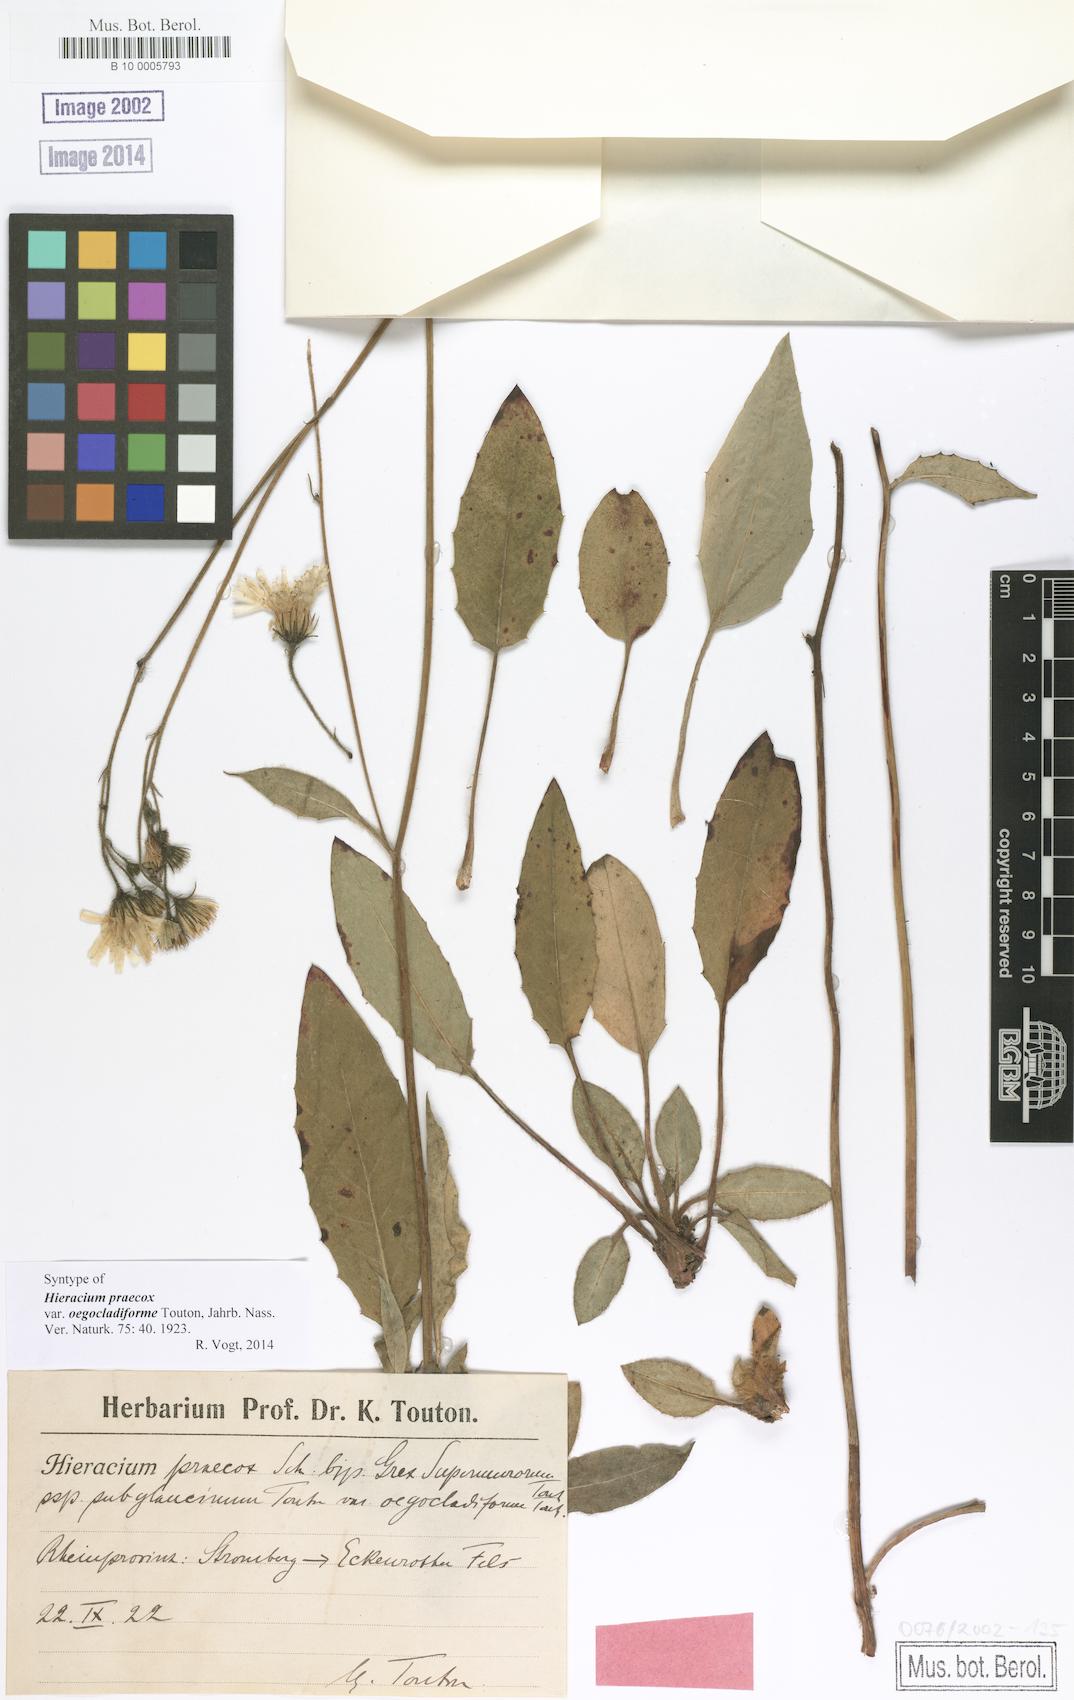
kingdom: Plantae
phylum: Tracheophyta
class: Magnoliopsida
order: Asterales
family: Asteraceae
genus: Hieracium
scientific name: Hieracium praecox
